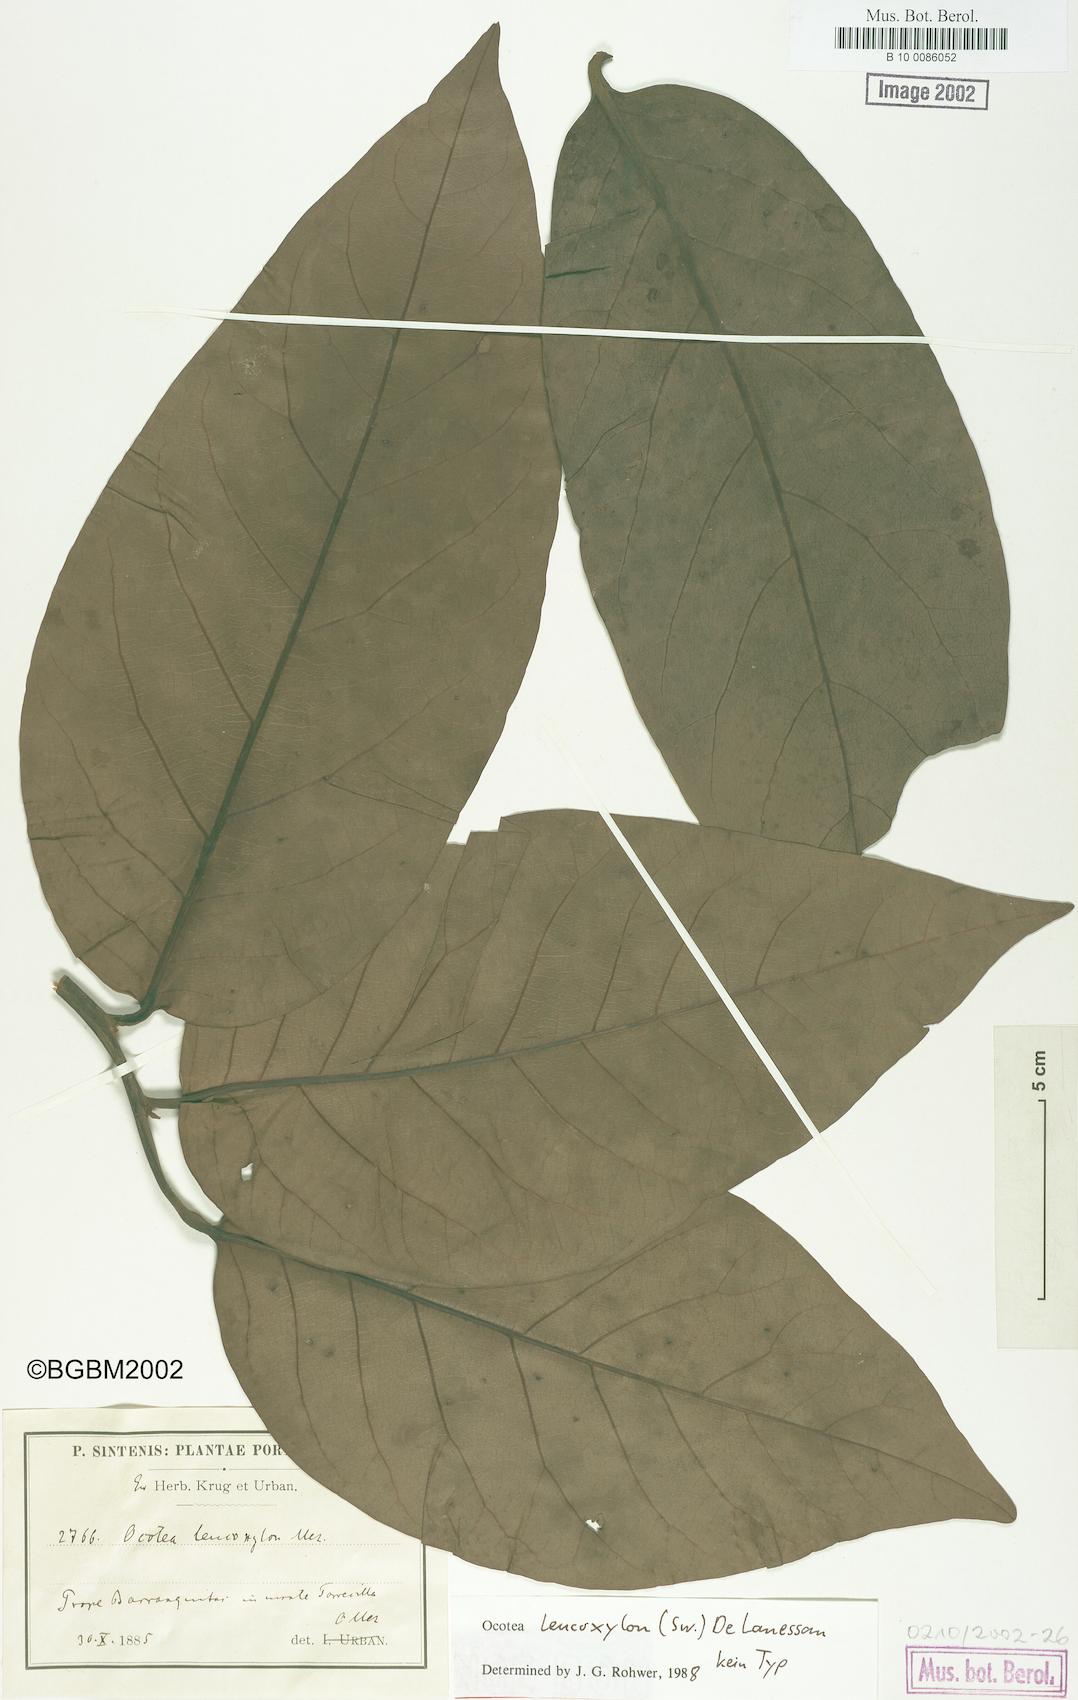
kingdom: Plantae
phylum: Tracheophyta
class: Magnoliopsida
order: Laurales
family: Lauraceae
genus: Ocotea
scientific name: Ocotea leucoxylon
